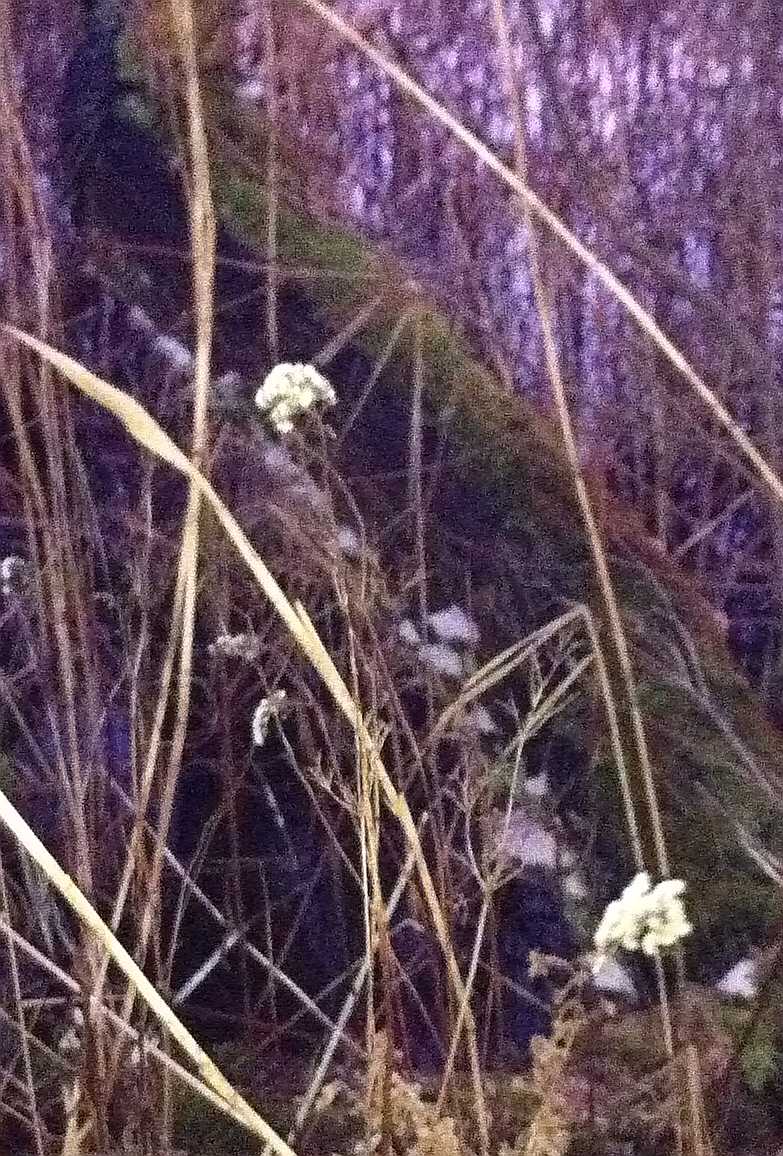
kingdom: Fungi
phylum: Basidiomycota
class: Agaricomycetes
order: Polyporales
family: Polyporaceae
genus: Trametes
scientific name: Trametes suaveolens
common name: vellugtende læderporesvamp
